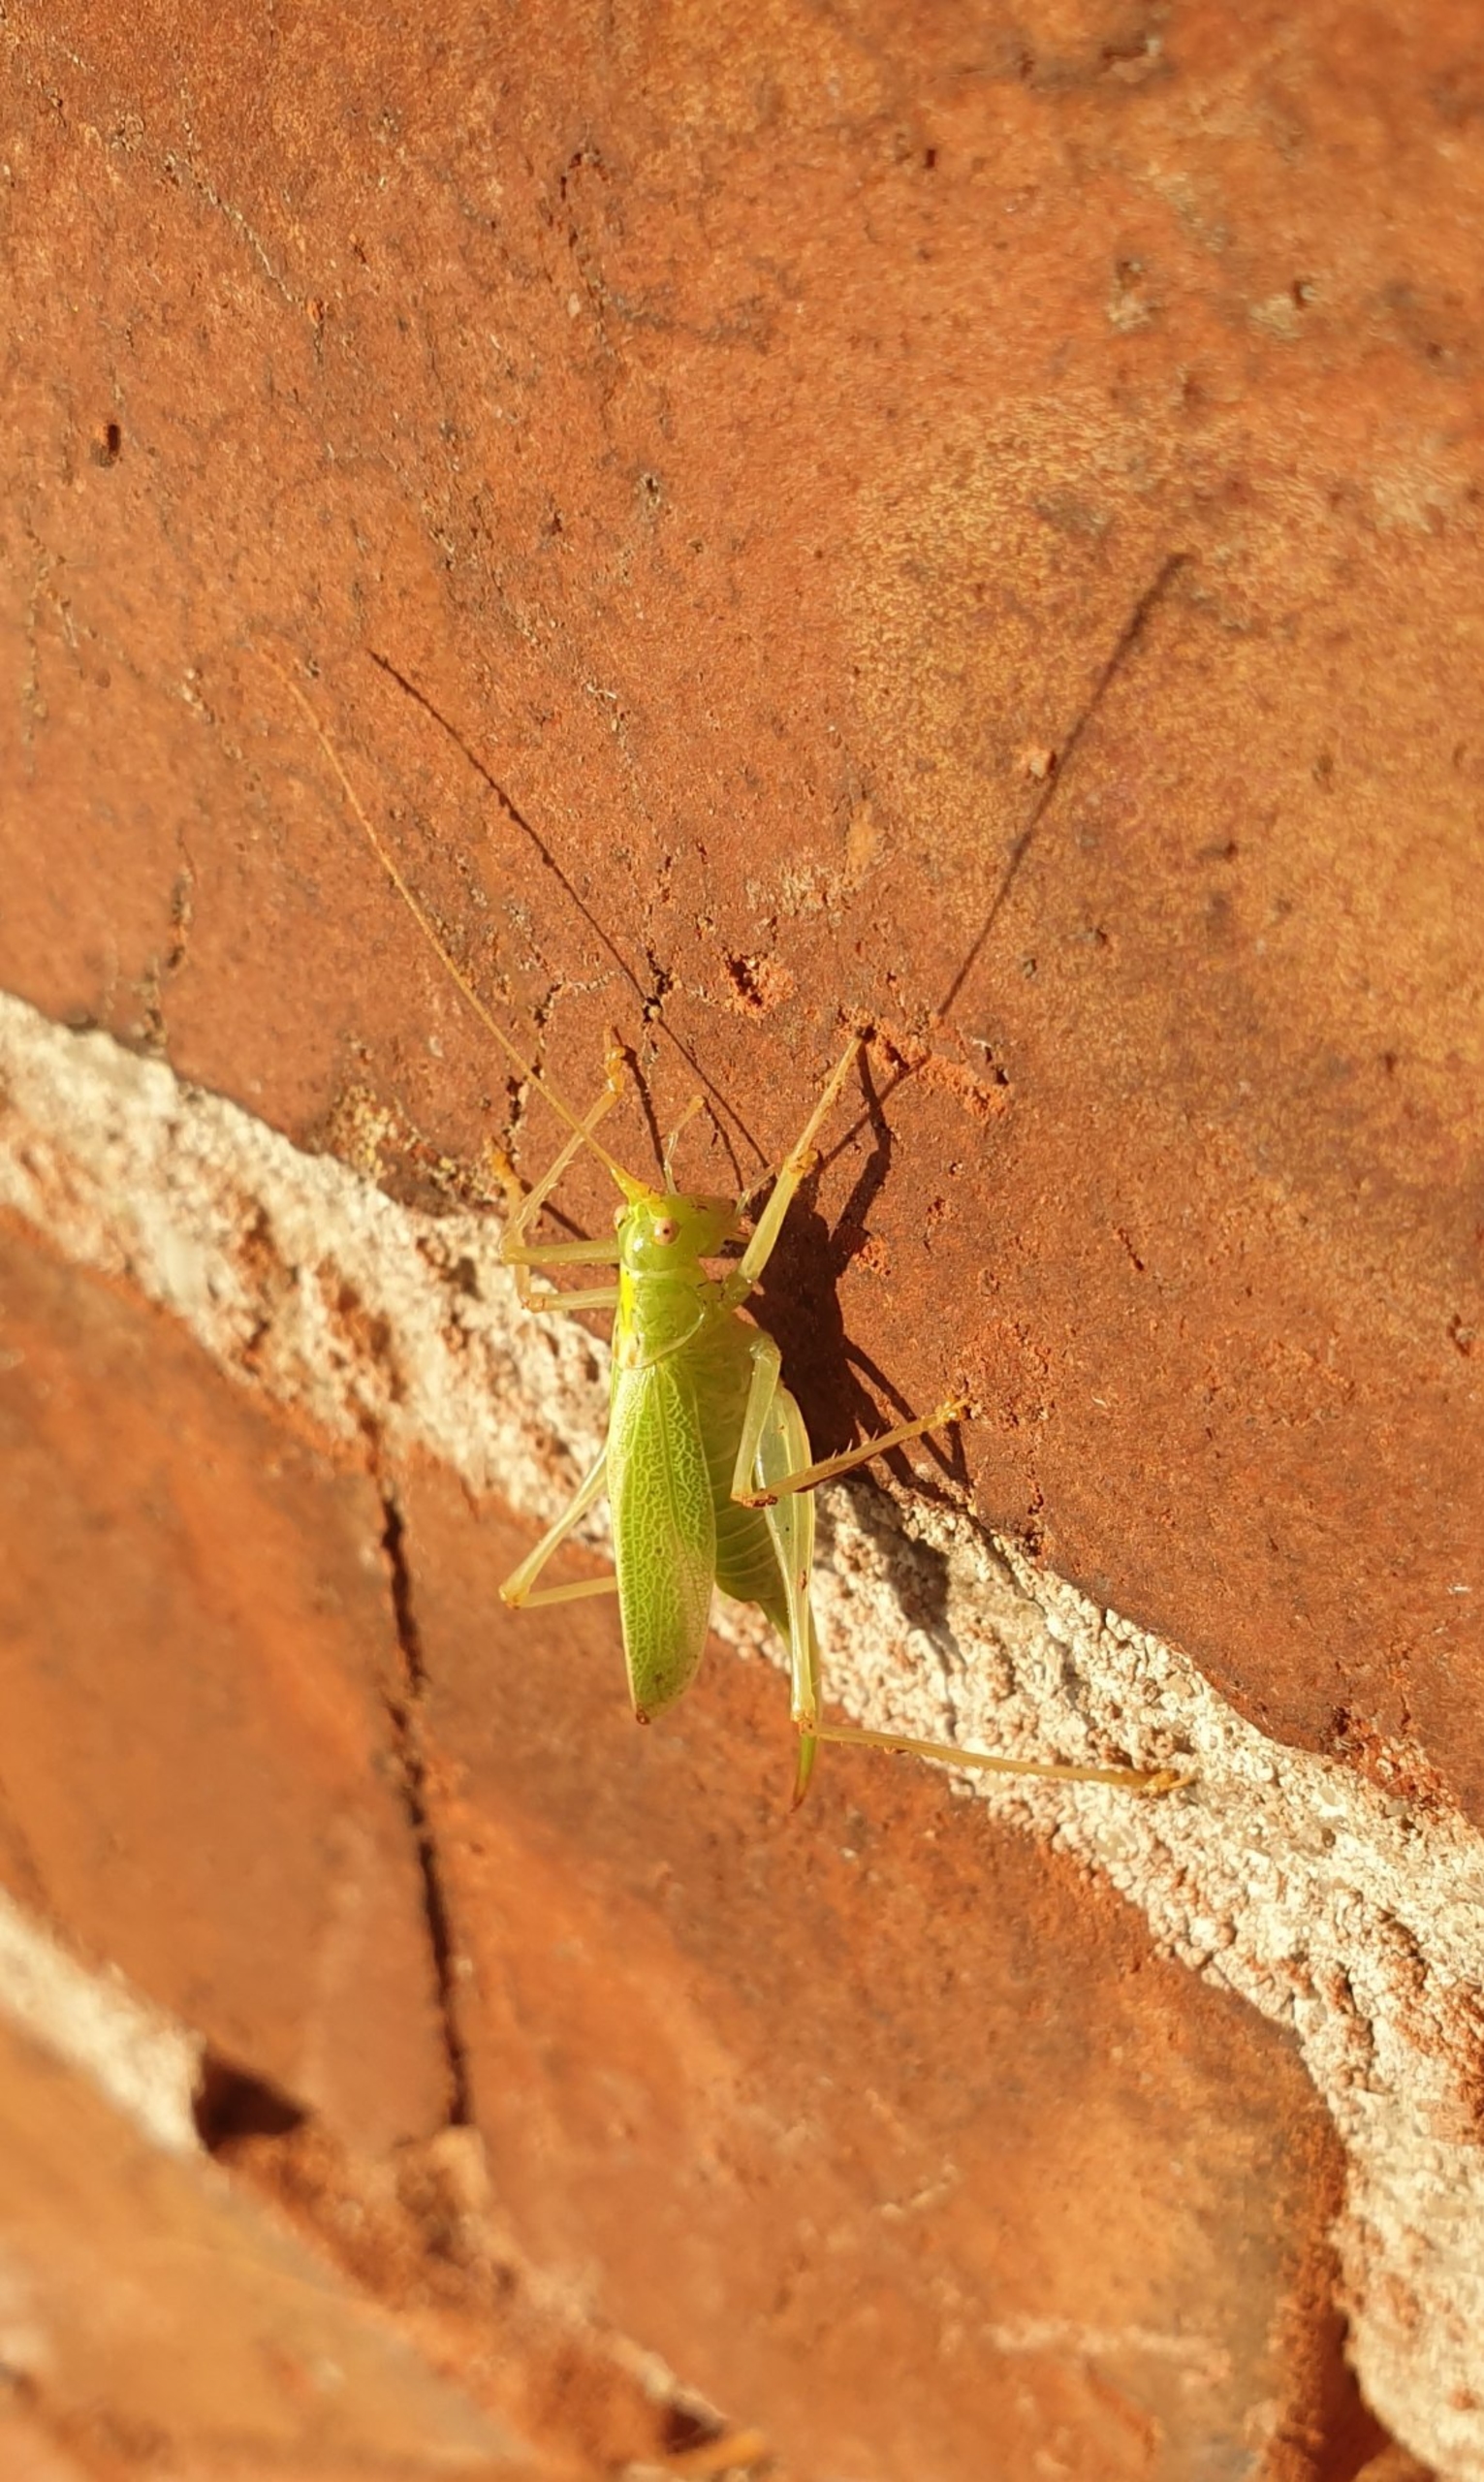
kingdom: Animalia
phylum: Arthropoda
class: Insecta
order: Orthoptera
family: Tettigoniidae
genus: Meconema
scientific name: Meconema thalassinum
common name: Egegræshoppe
